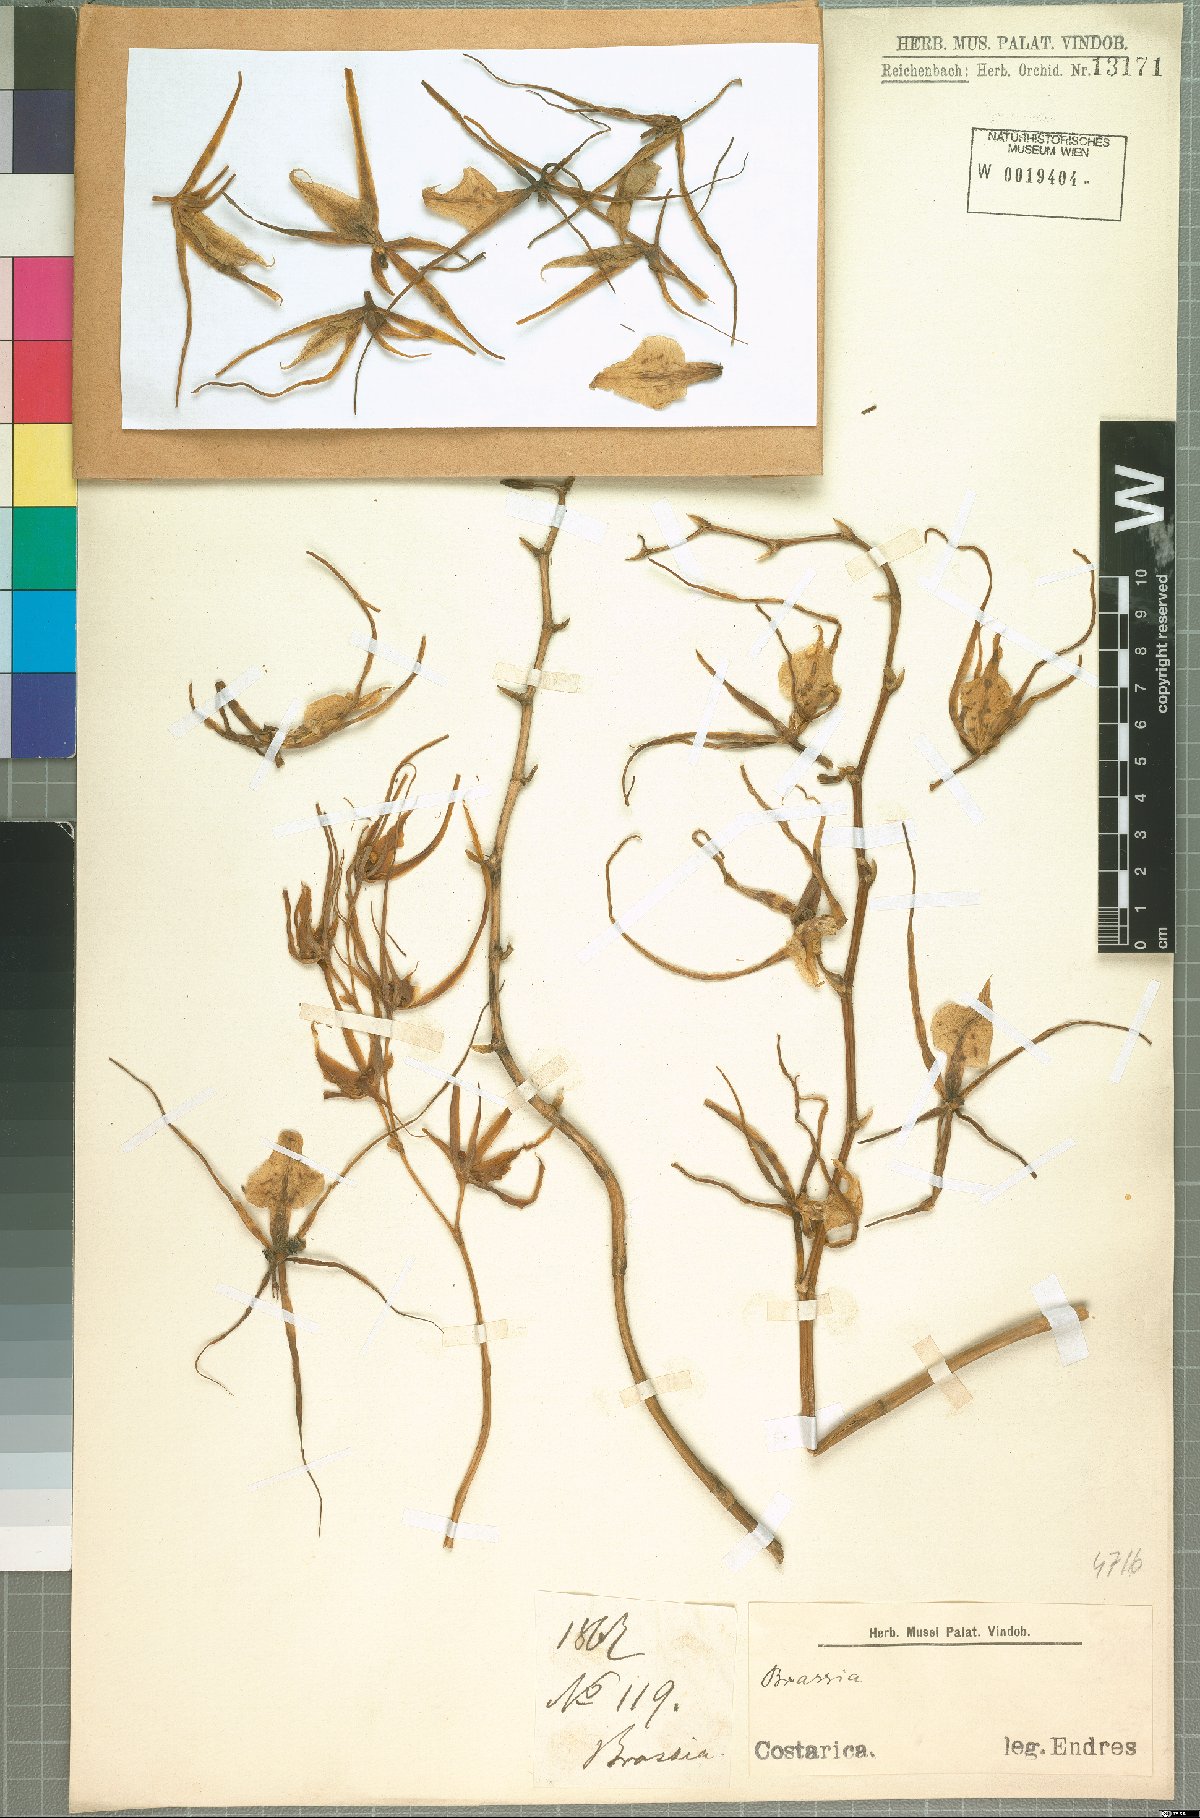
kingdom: Plantae
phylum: Tracheophyta
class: Liliopsida
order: Asparagales
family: Orchidaceae
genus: Brassia
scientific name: Brassia
